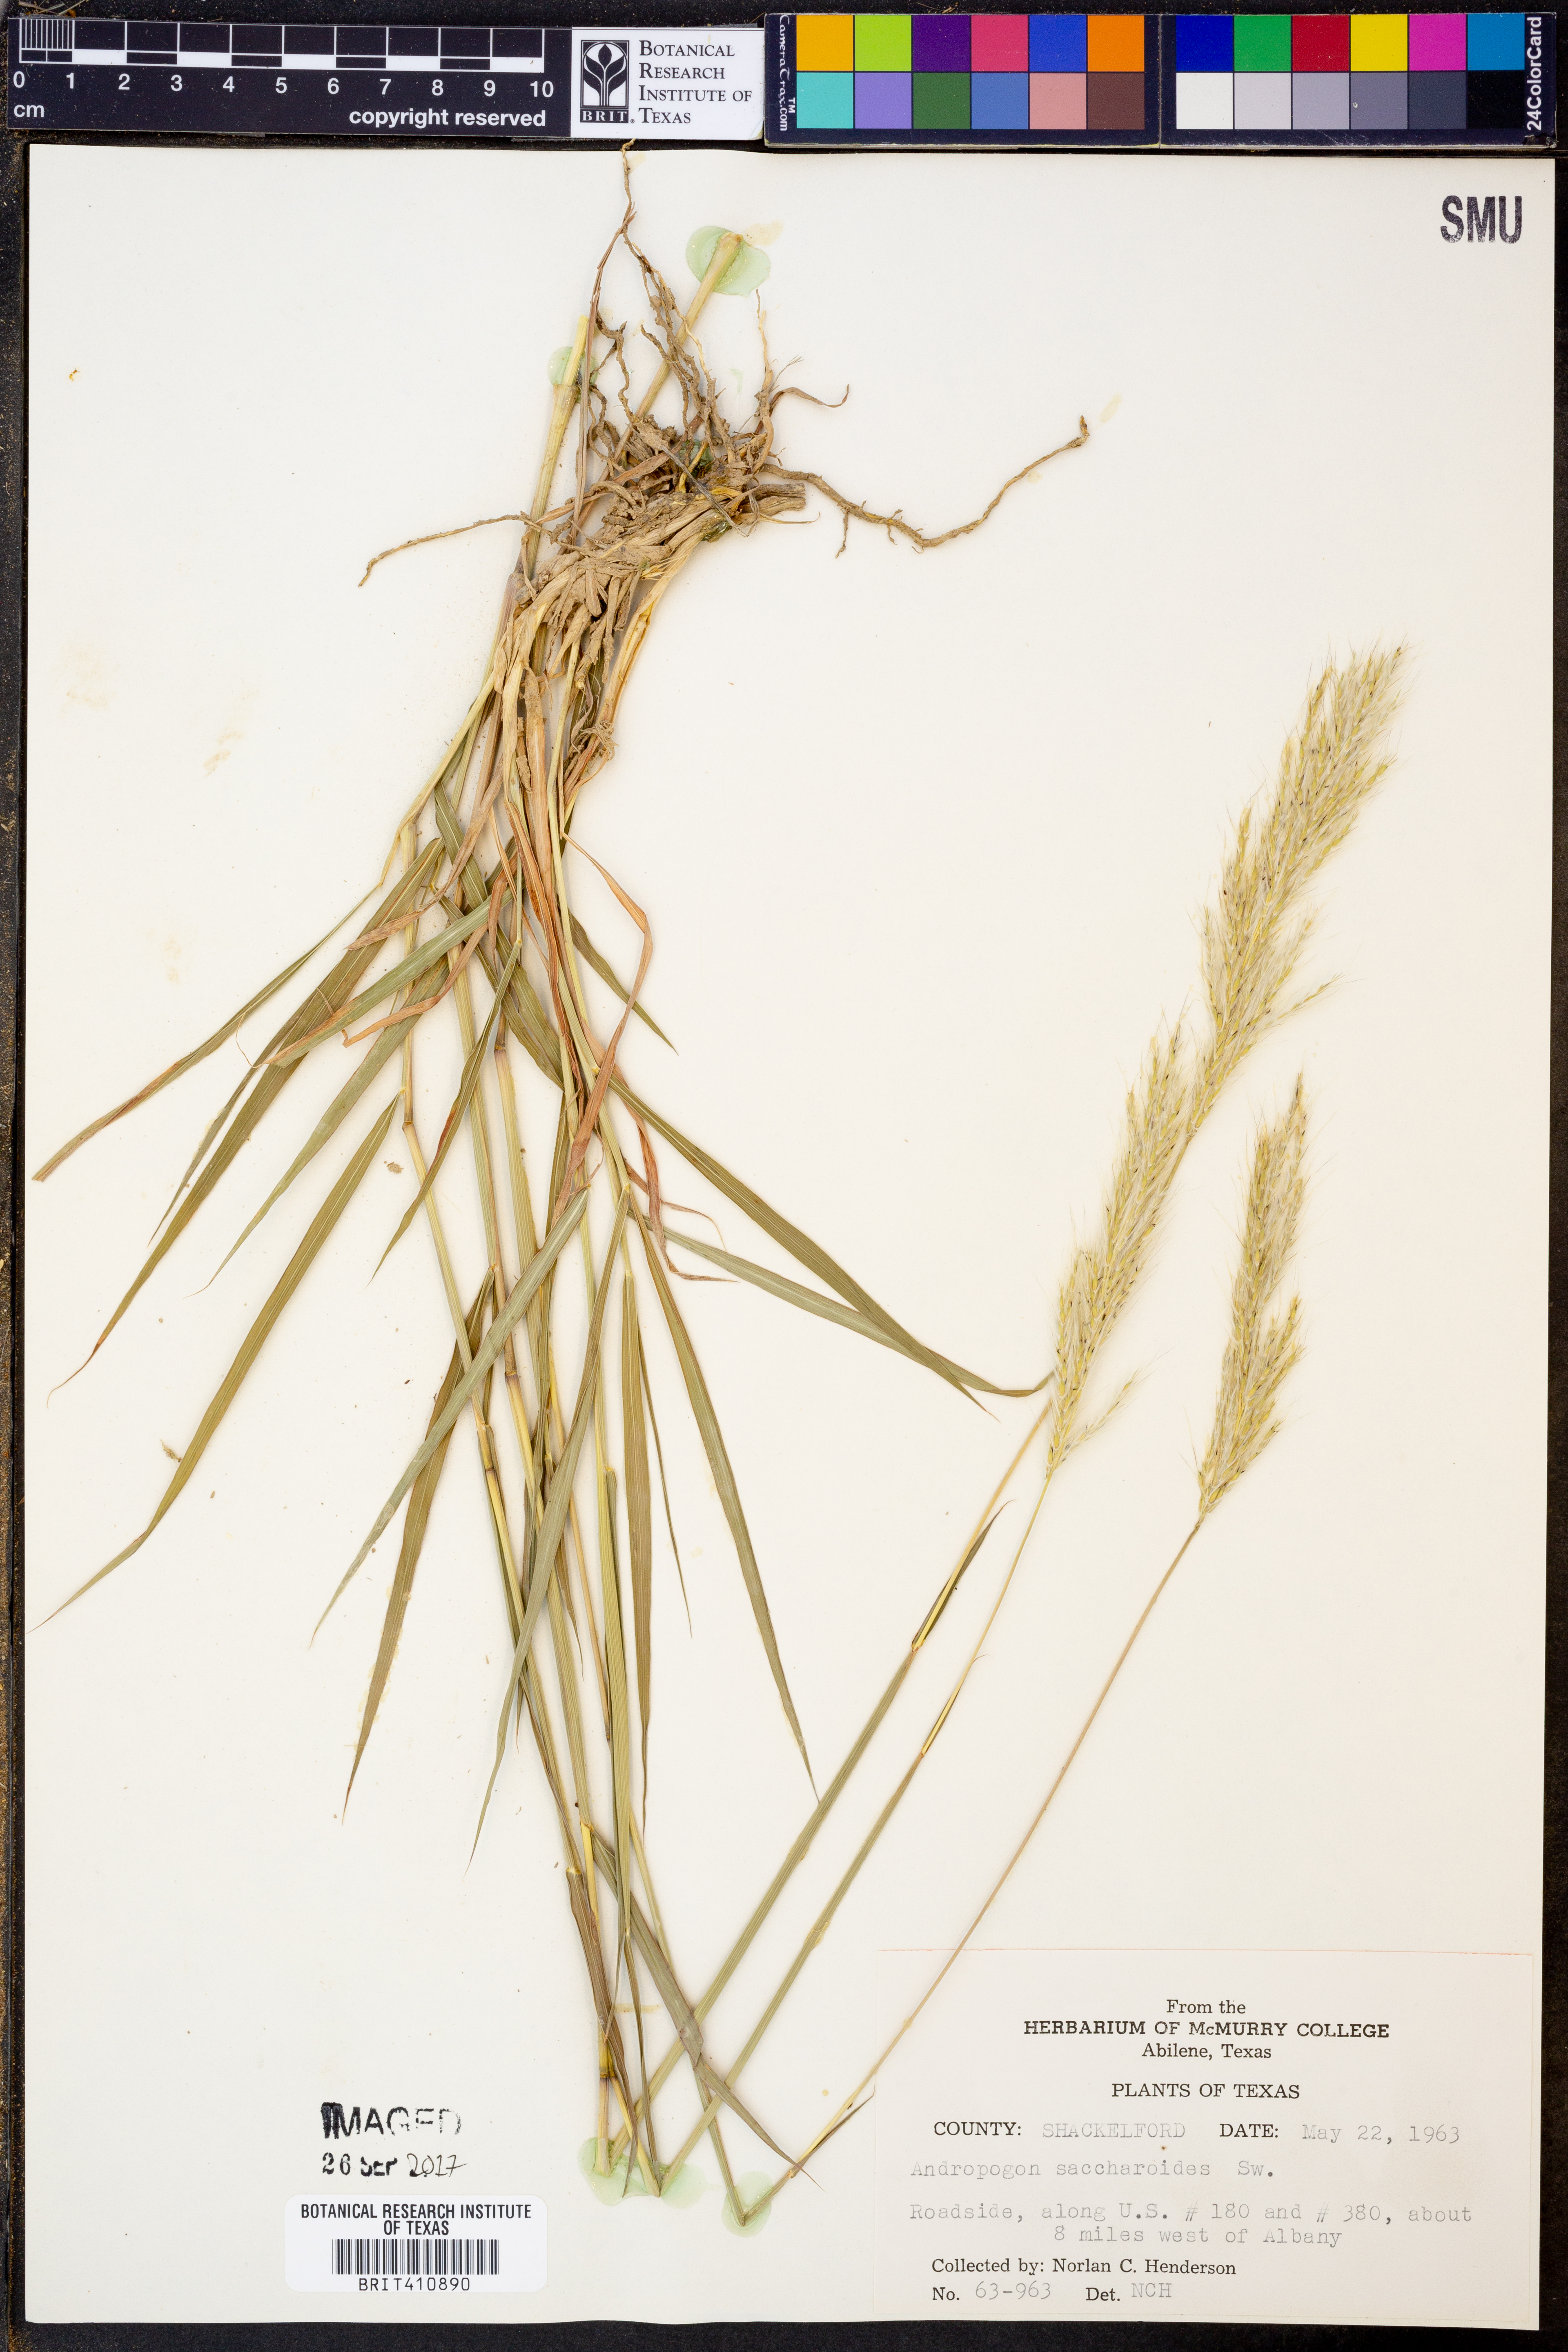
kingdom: Plantae
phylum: Tracheophyta
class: Liliopsida
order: Poales
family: Poaceae
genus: Bothriochloa
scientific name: Bothriochloa saccharoides
